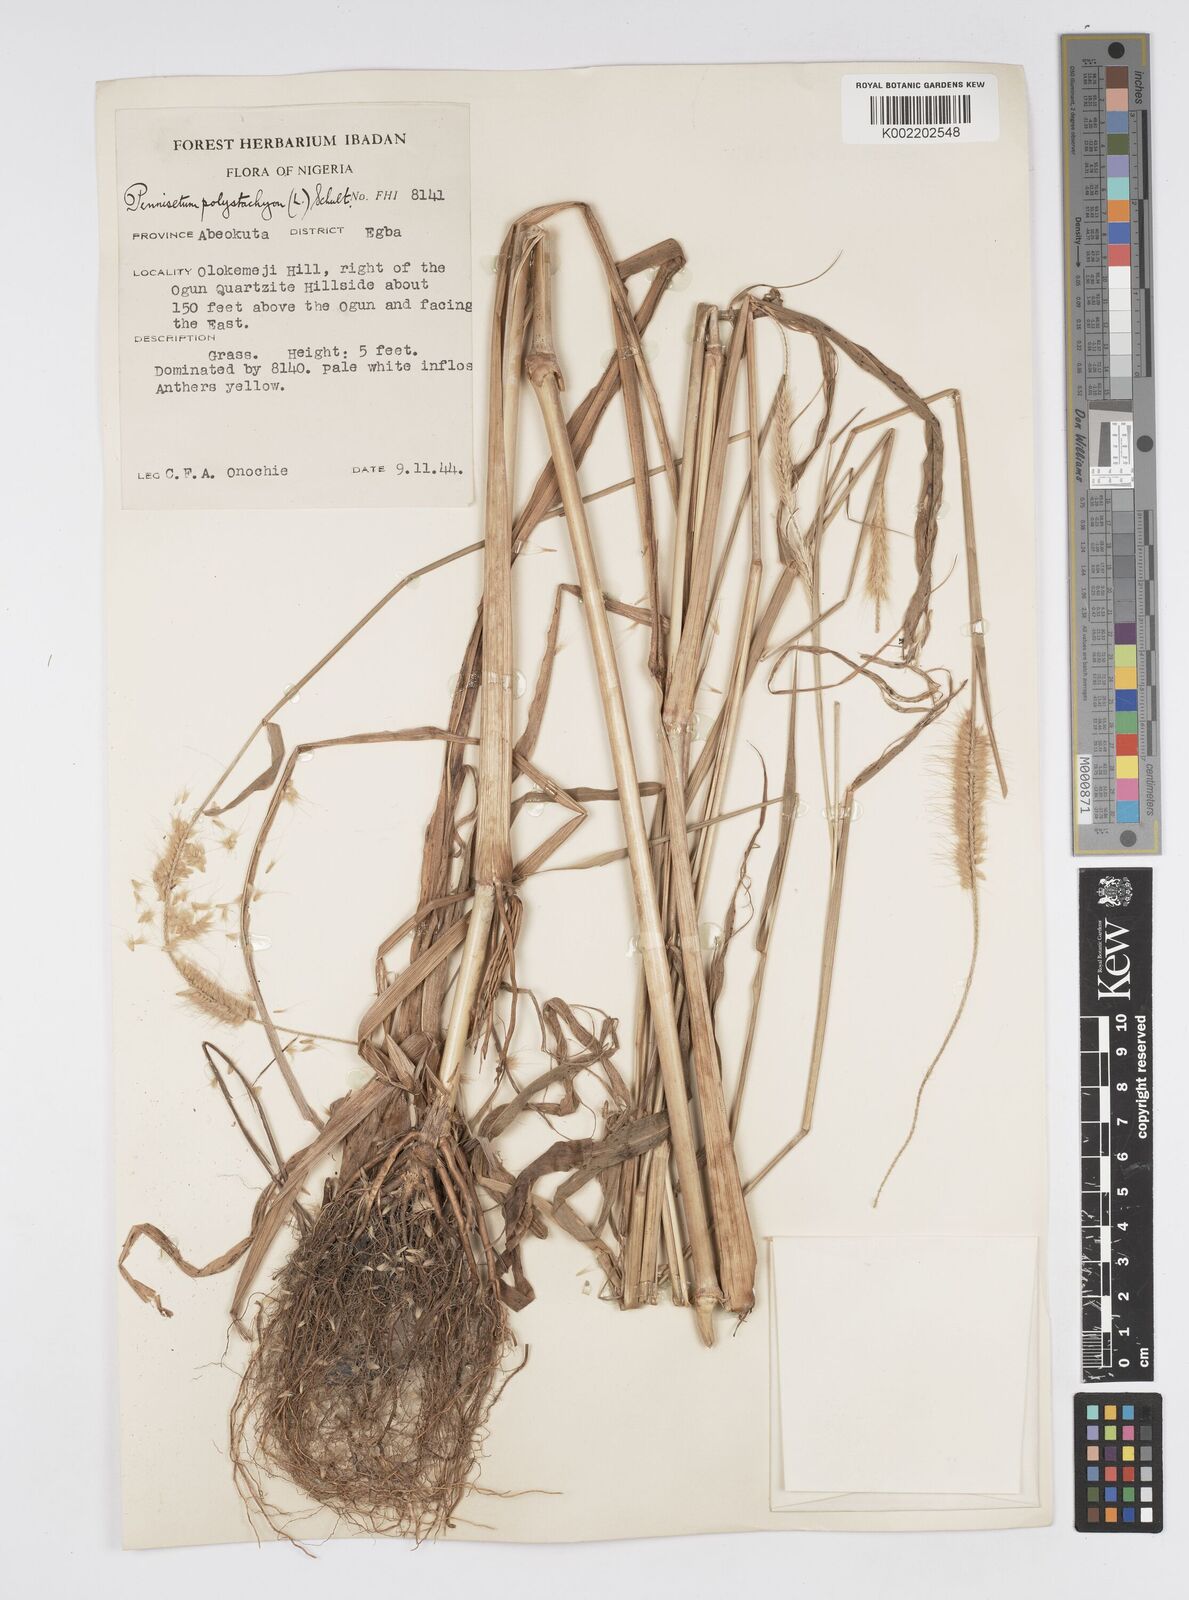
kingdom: Plantae
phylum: Tracheophyta
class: Liliopsida
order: Poales
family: Poaceae
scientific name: Poaceae
